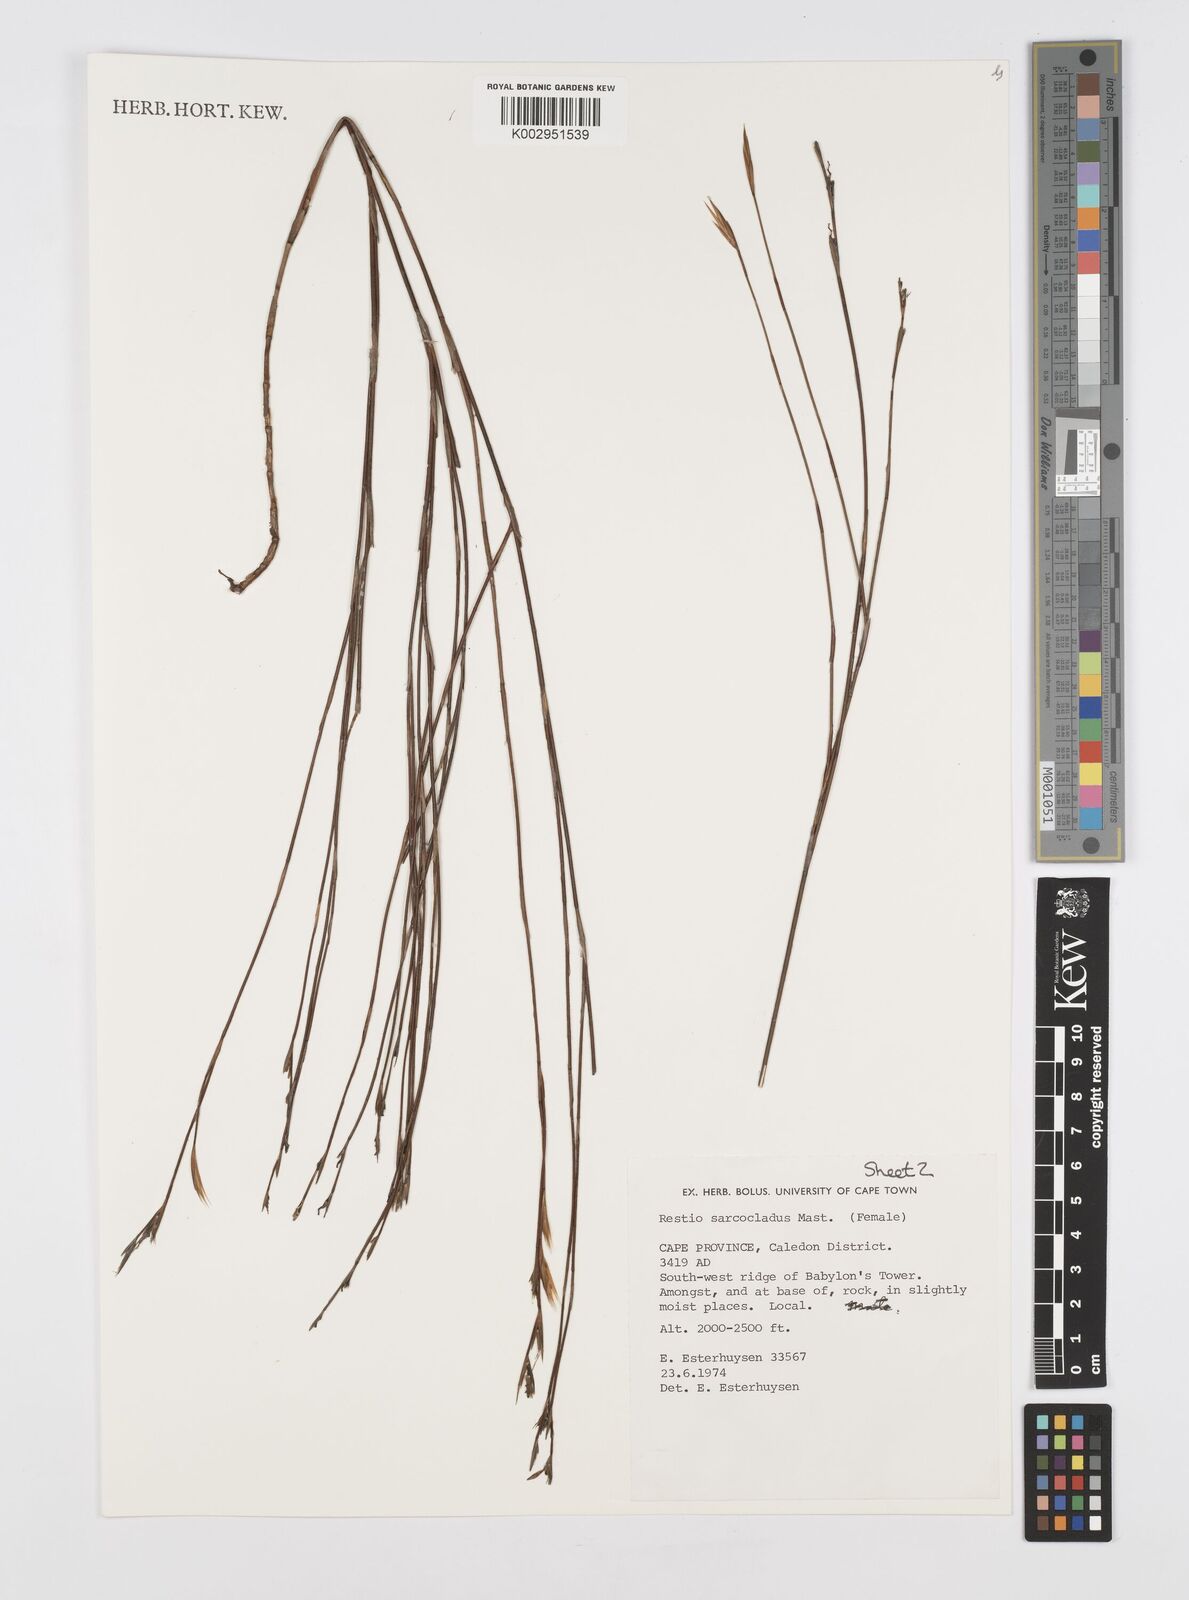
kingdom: Plantae
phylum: Tracheophyta
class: Liliopsida
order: Poales
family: Restionaceae
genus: Restio
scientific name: Restio saroclados
